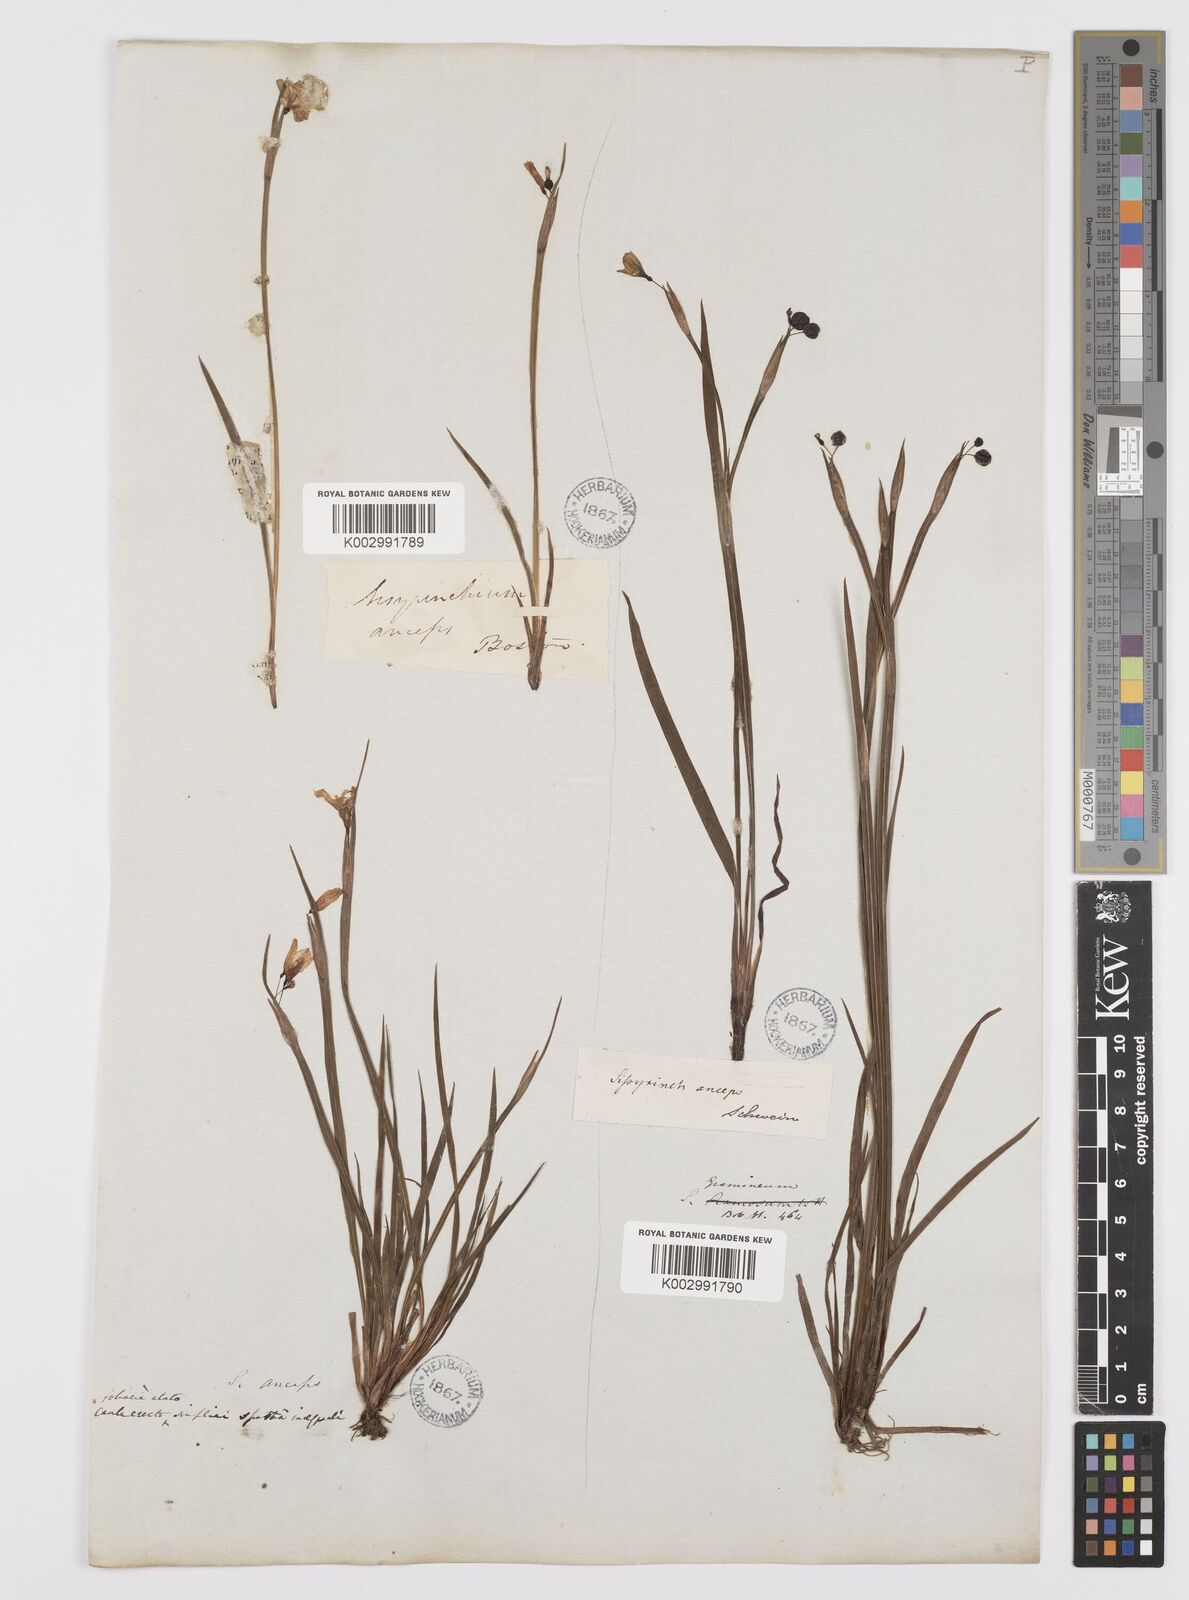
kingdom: Plantae
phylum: Tracheophyta
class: Liliopsida
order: Asparagales
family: Iridaceae
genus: Sisyrinchium
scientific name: Sisyrinchium bermudiana
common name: Blue-eyed-grass
